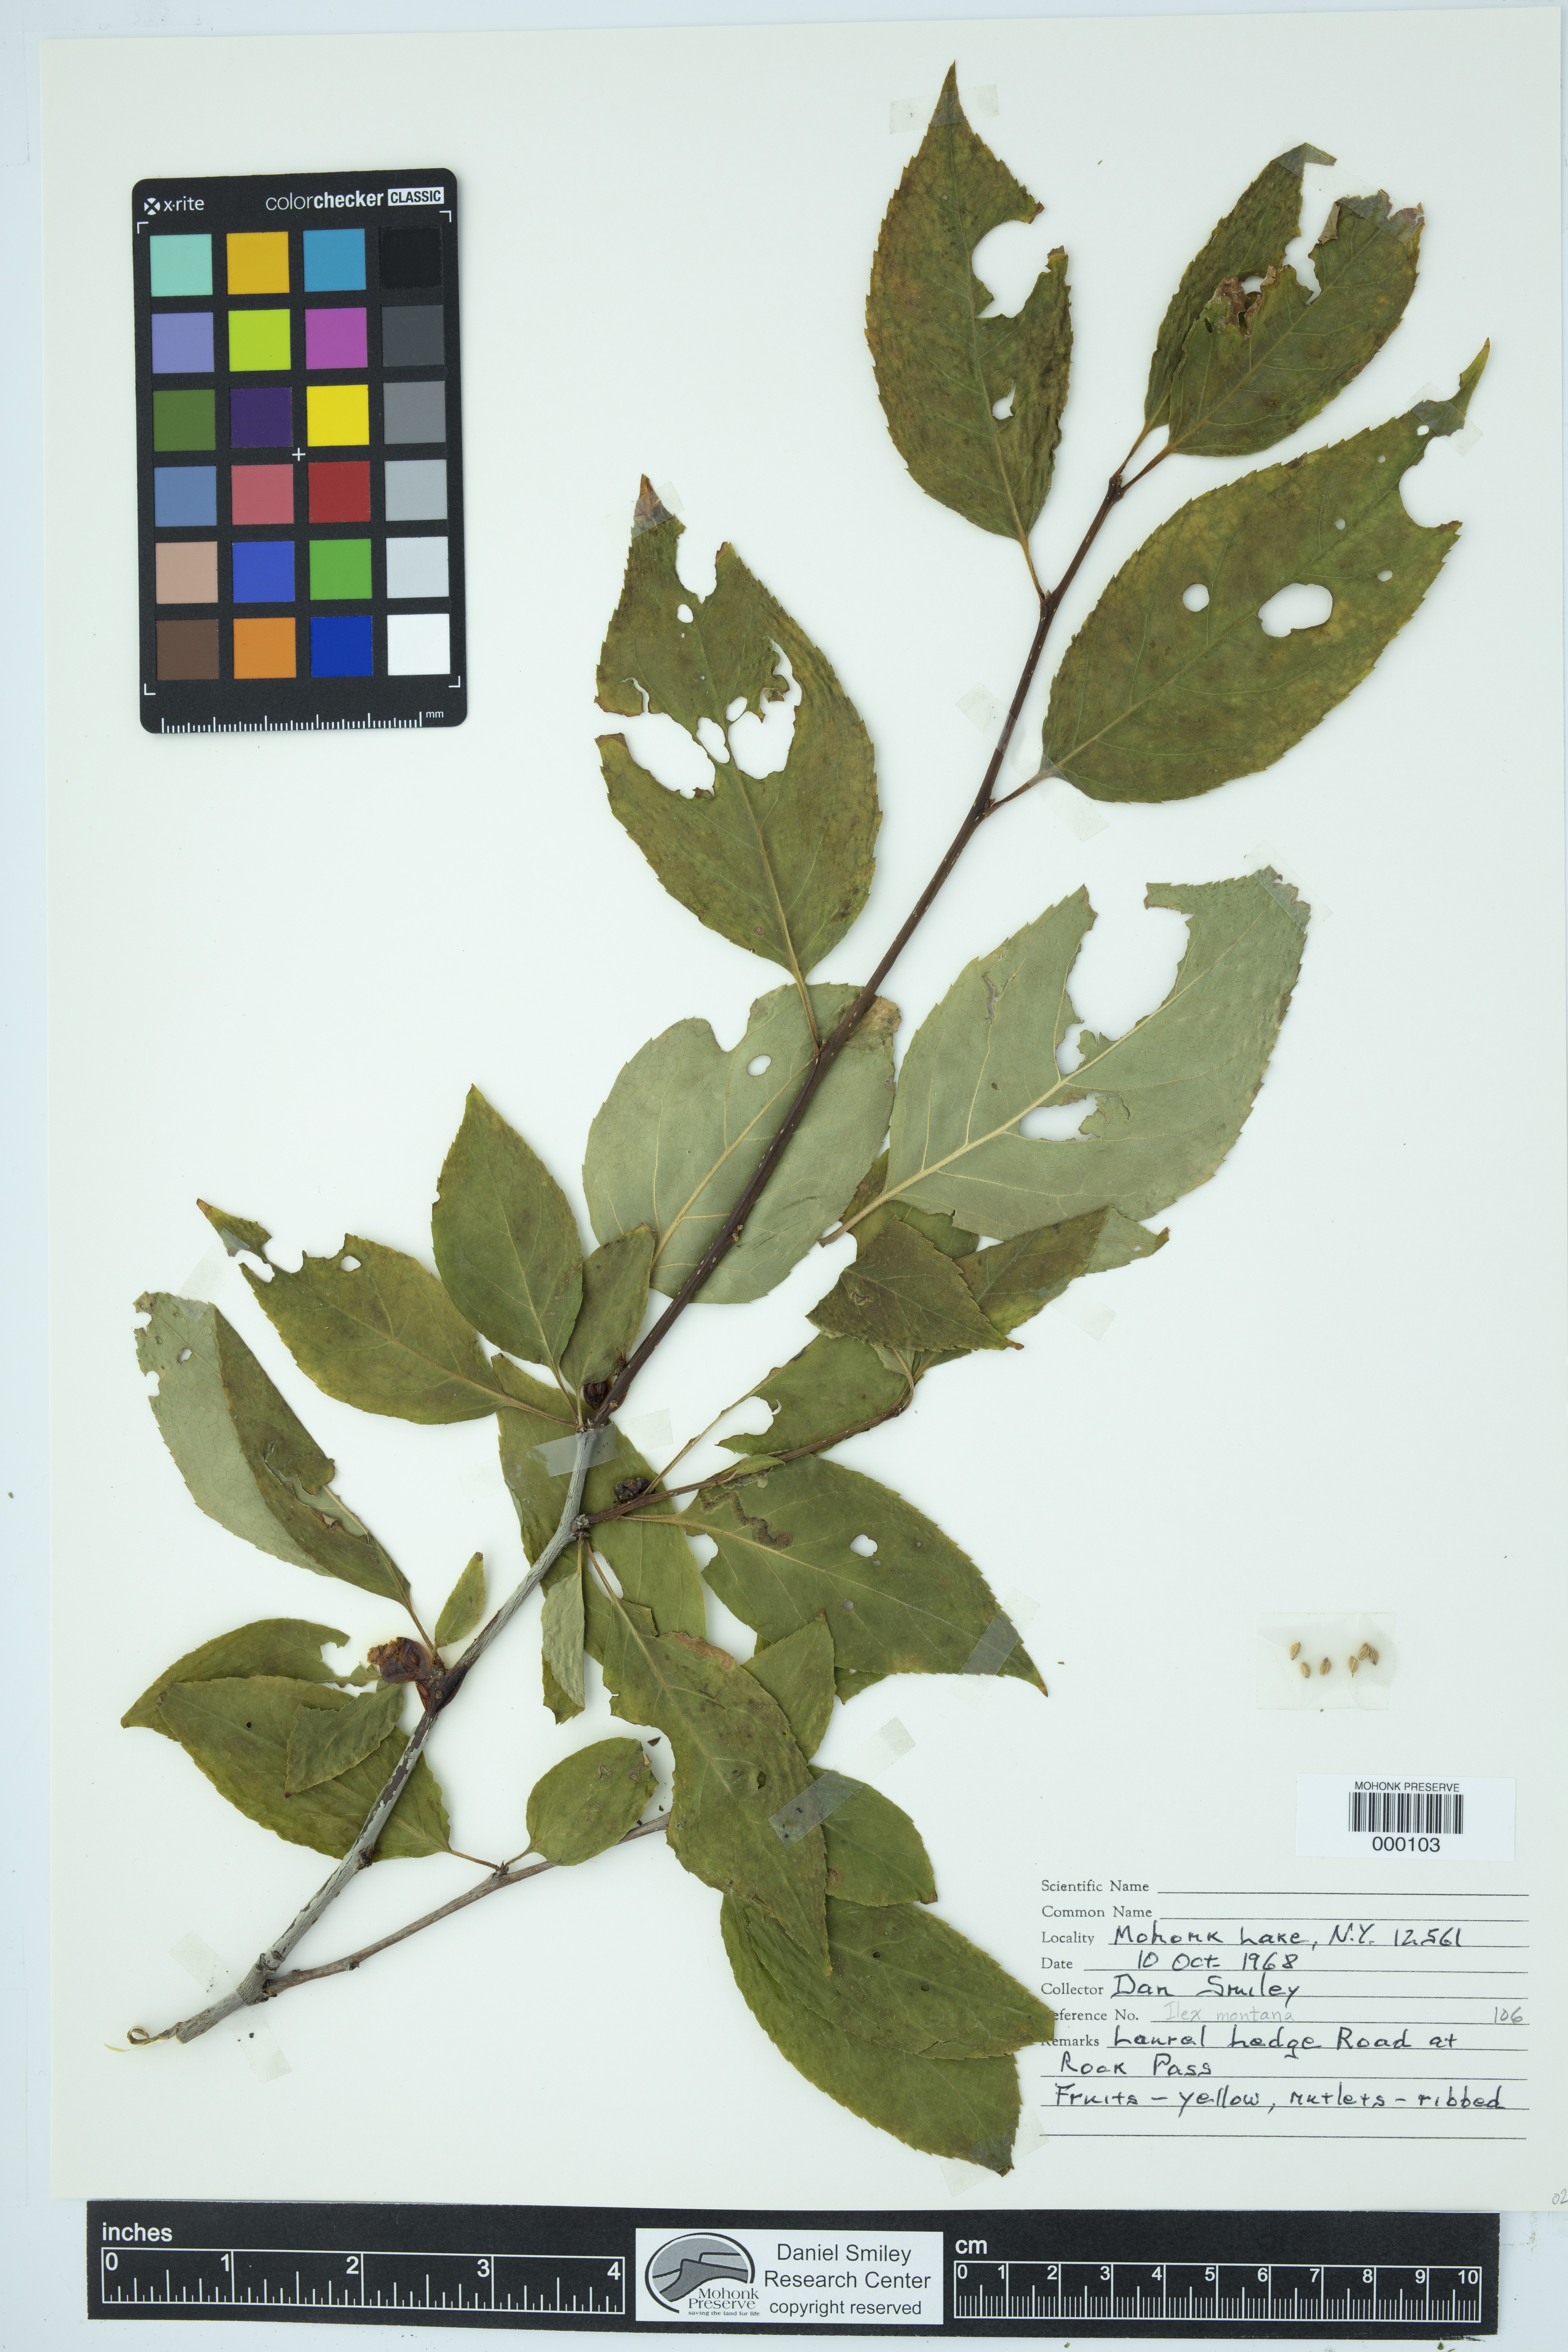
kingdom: Plantae
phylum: Tracheophyta
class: Magnoliopsida
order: Aquifoliales
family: Aquifoliaceae
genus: Ilex
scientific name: Ilex montana
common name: Mountain winterberry
